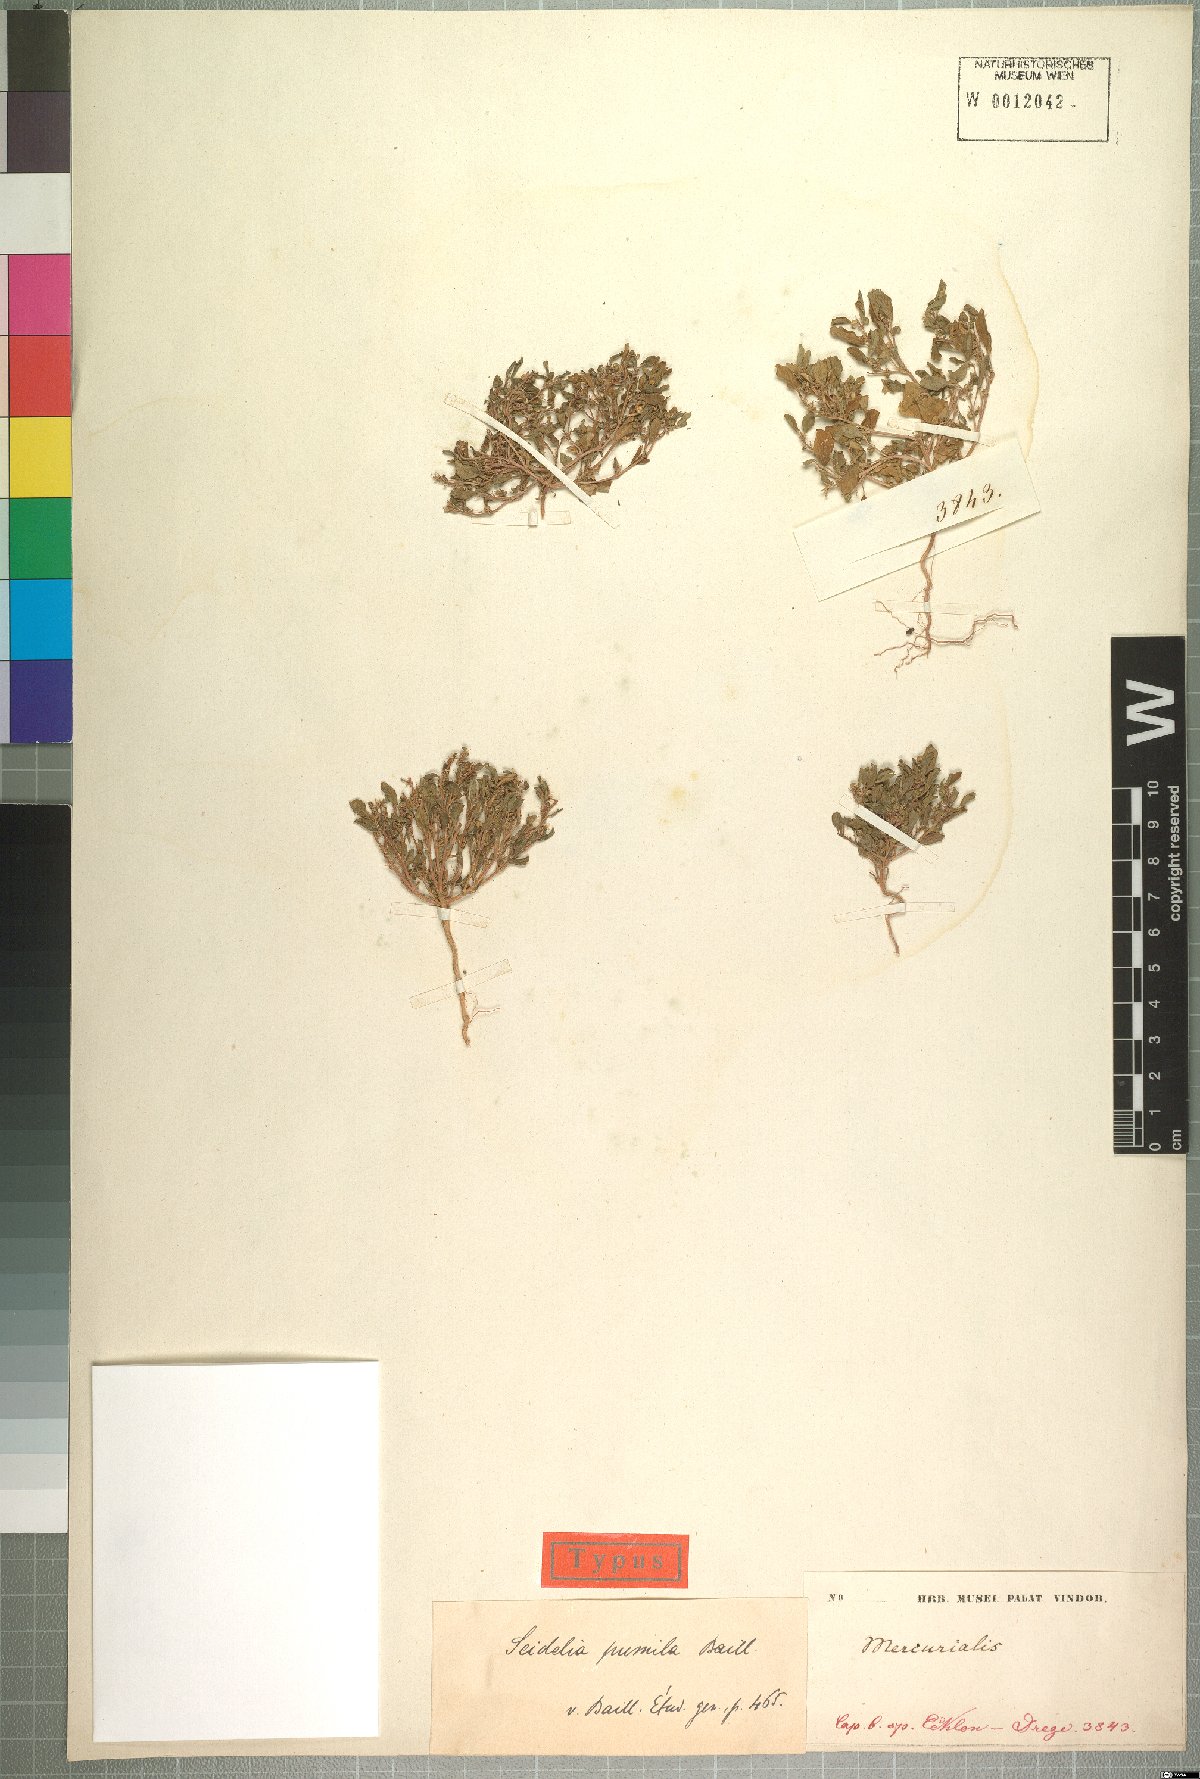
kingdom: Plantae
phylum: Tracheophyta
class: Magnoliopsida
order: Malpighiales
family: Euphorbiaceae
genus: Seidelia
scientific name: Seidelia triandra
